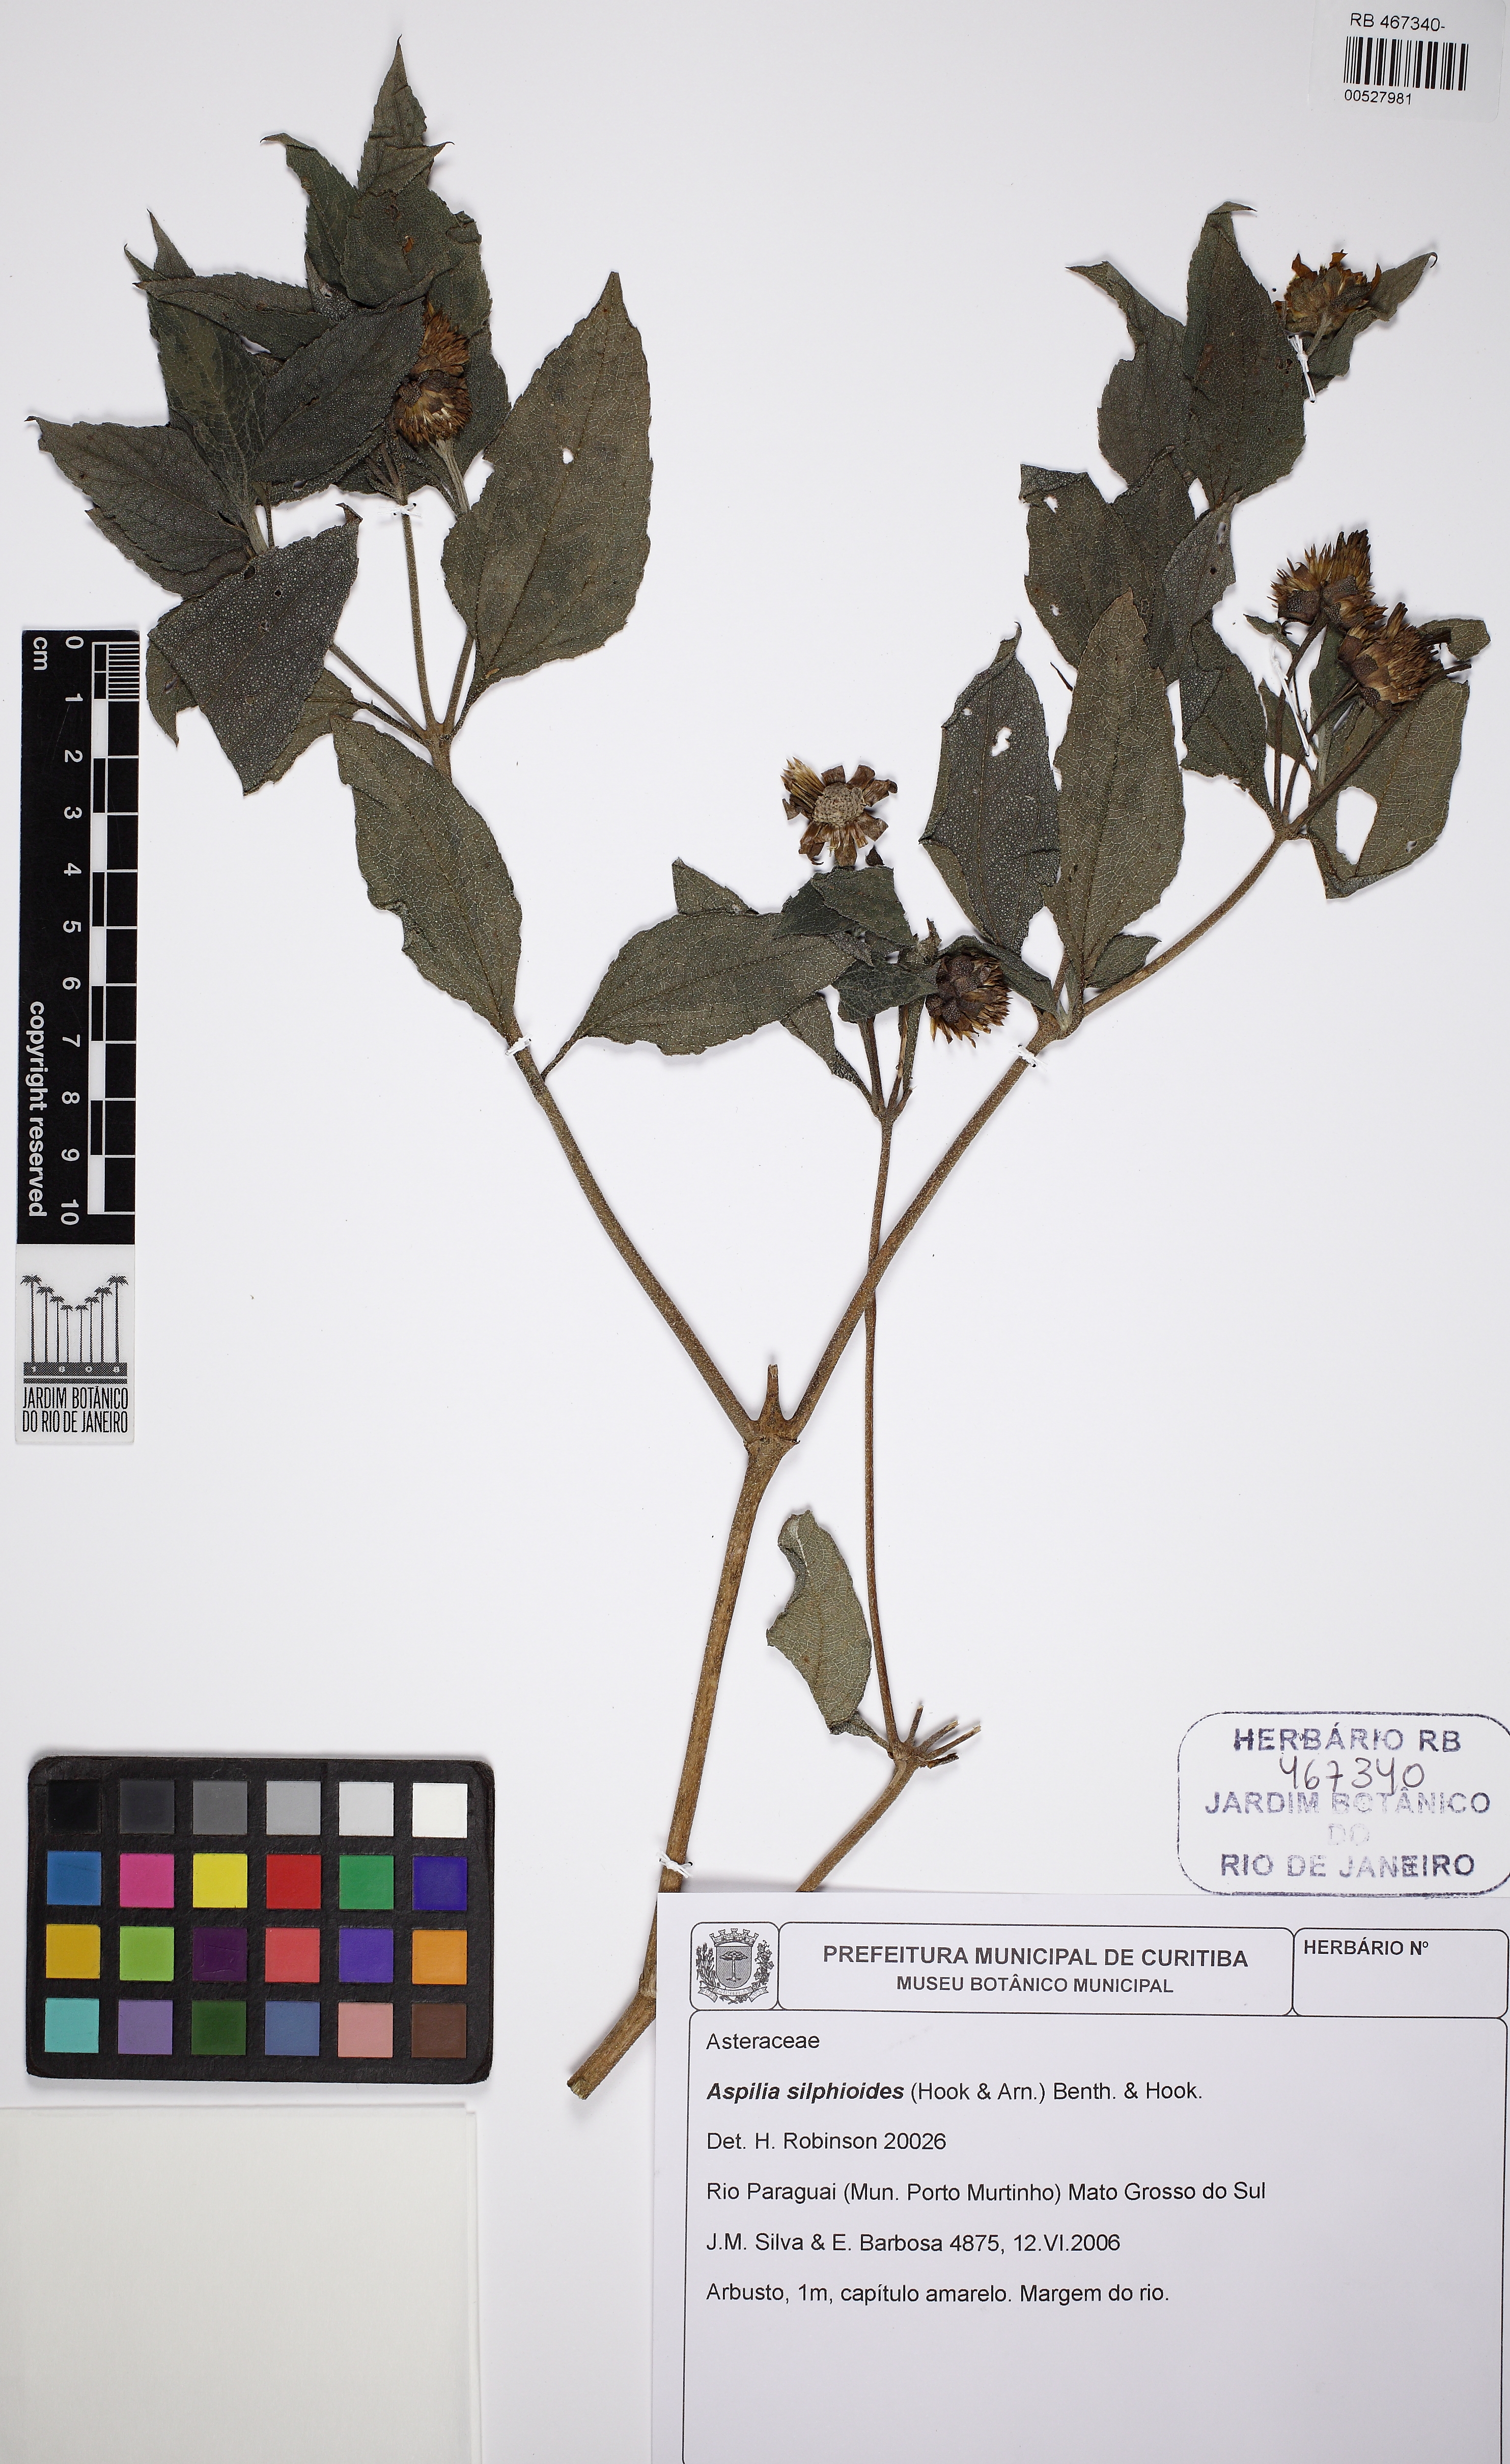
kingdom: Plantae
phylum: Tracheophyta
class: Magnoliopsida
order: Asterales
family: Asteraceae
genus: Wedelia
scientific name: Wedelia silphioides
